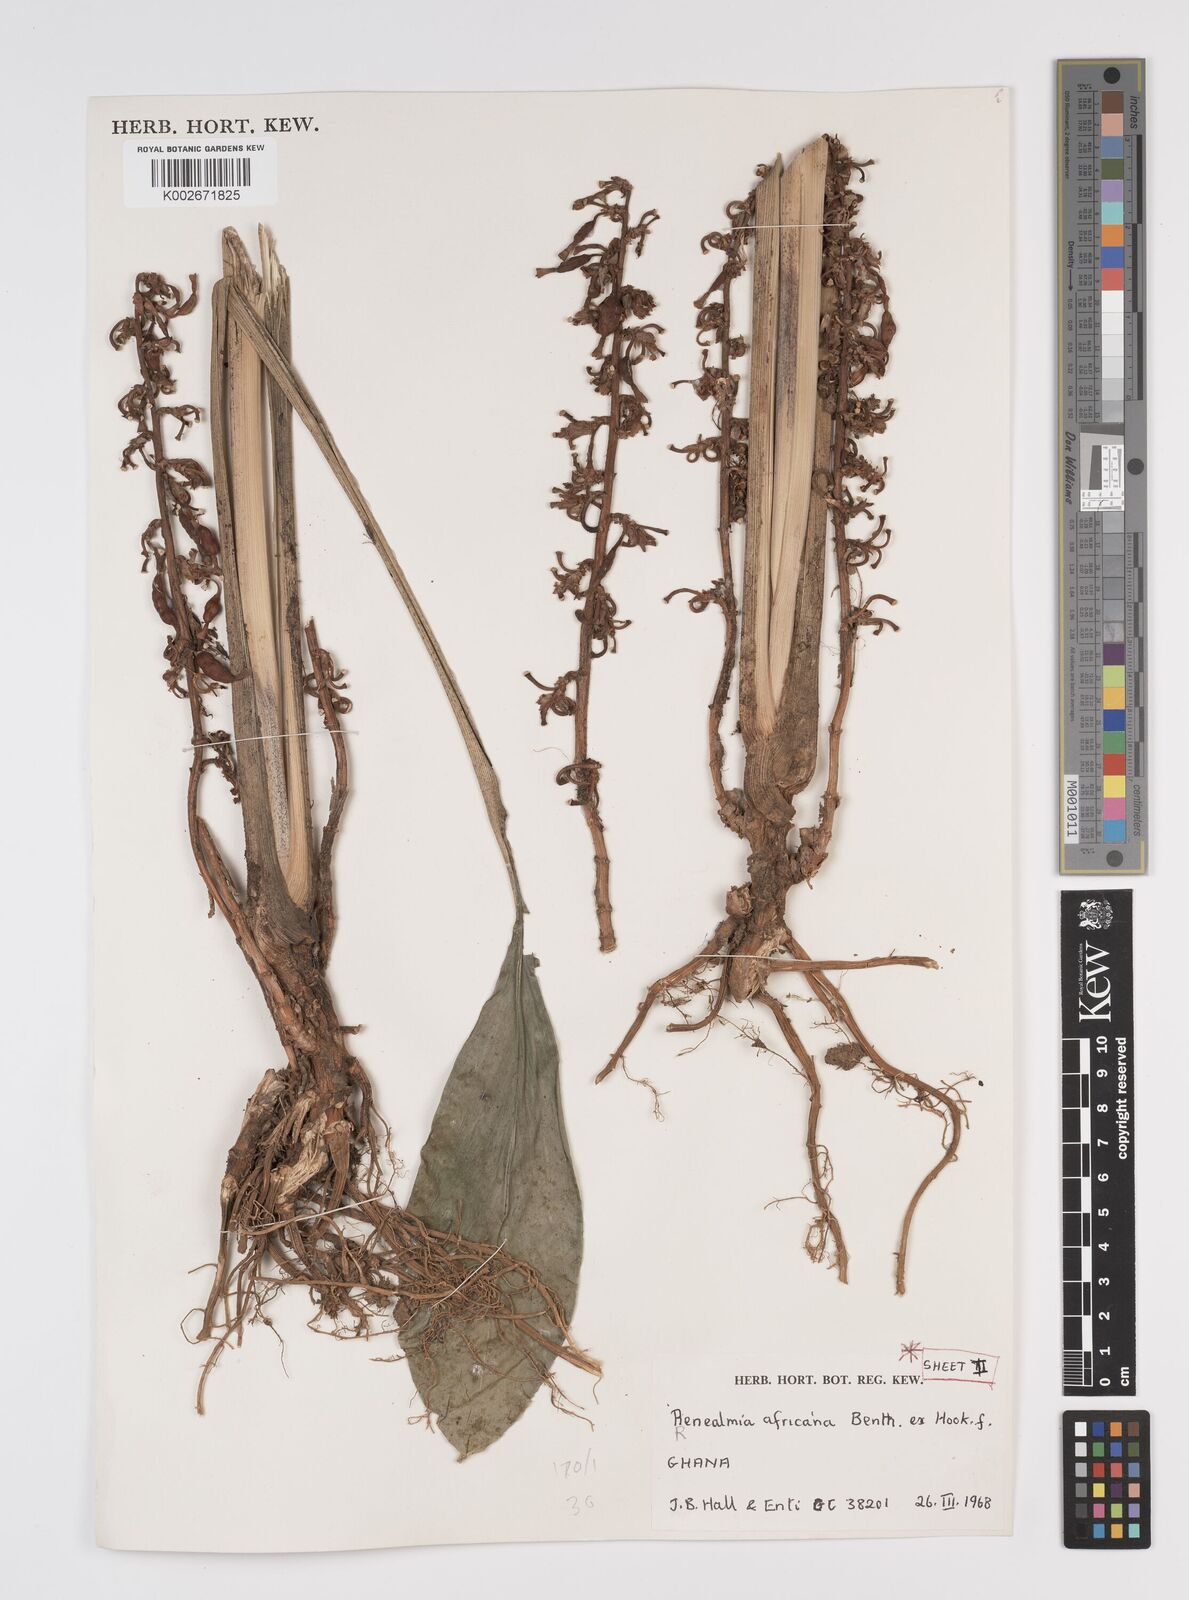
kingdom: Plantae
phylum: Tracheophyta
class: Liliopsida
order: Zingiberales
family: Zingiberaceae
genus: Renealmia
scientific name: Renealmia africana
